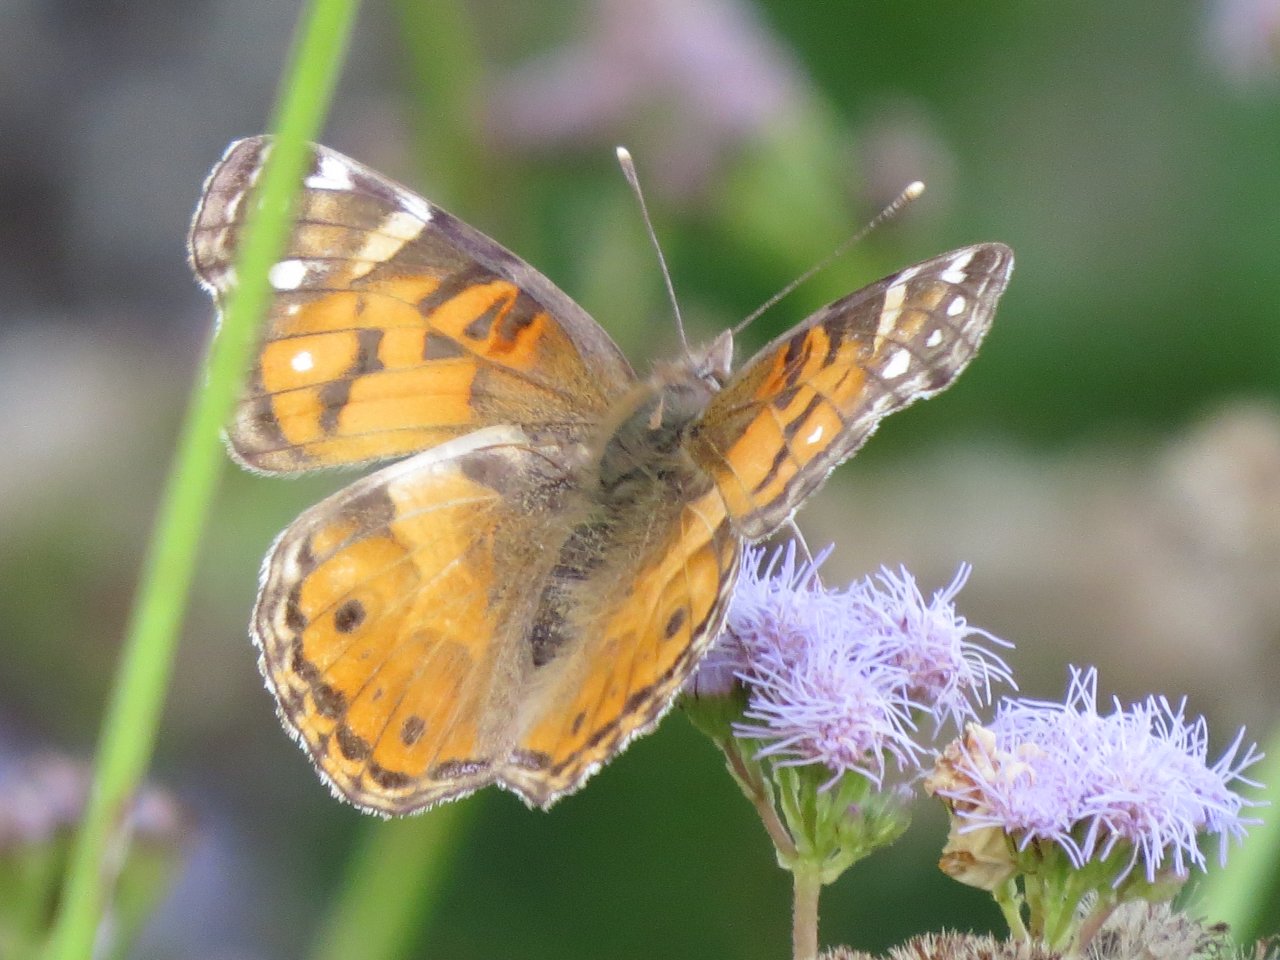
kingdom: Animalia
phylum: Arthropoda
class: Insecta
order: Lepidoptera
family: Nymphalidae
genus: Vanessa
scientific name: Vanessa virginiensis
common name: American Lady
